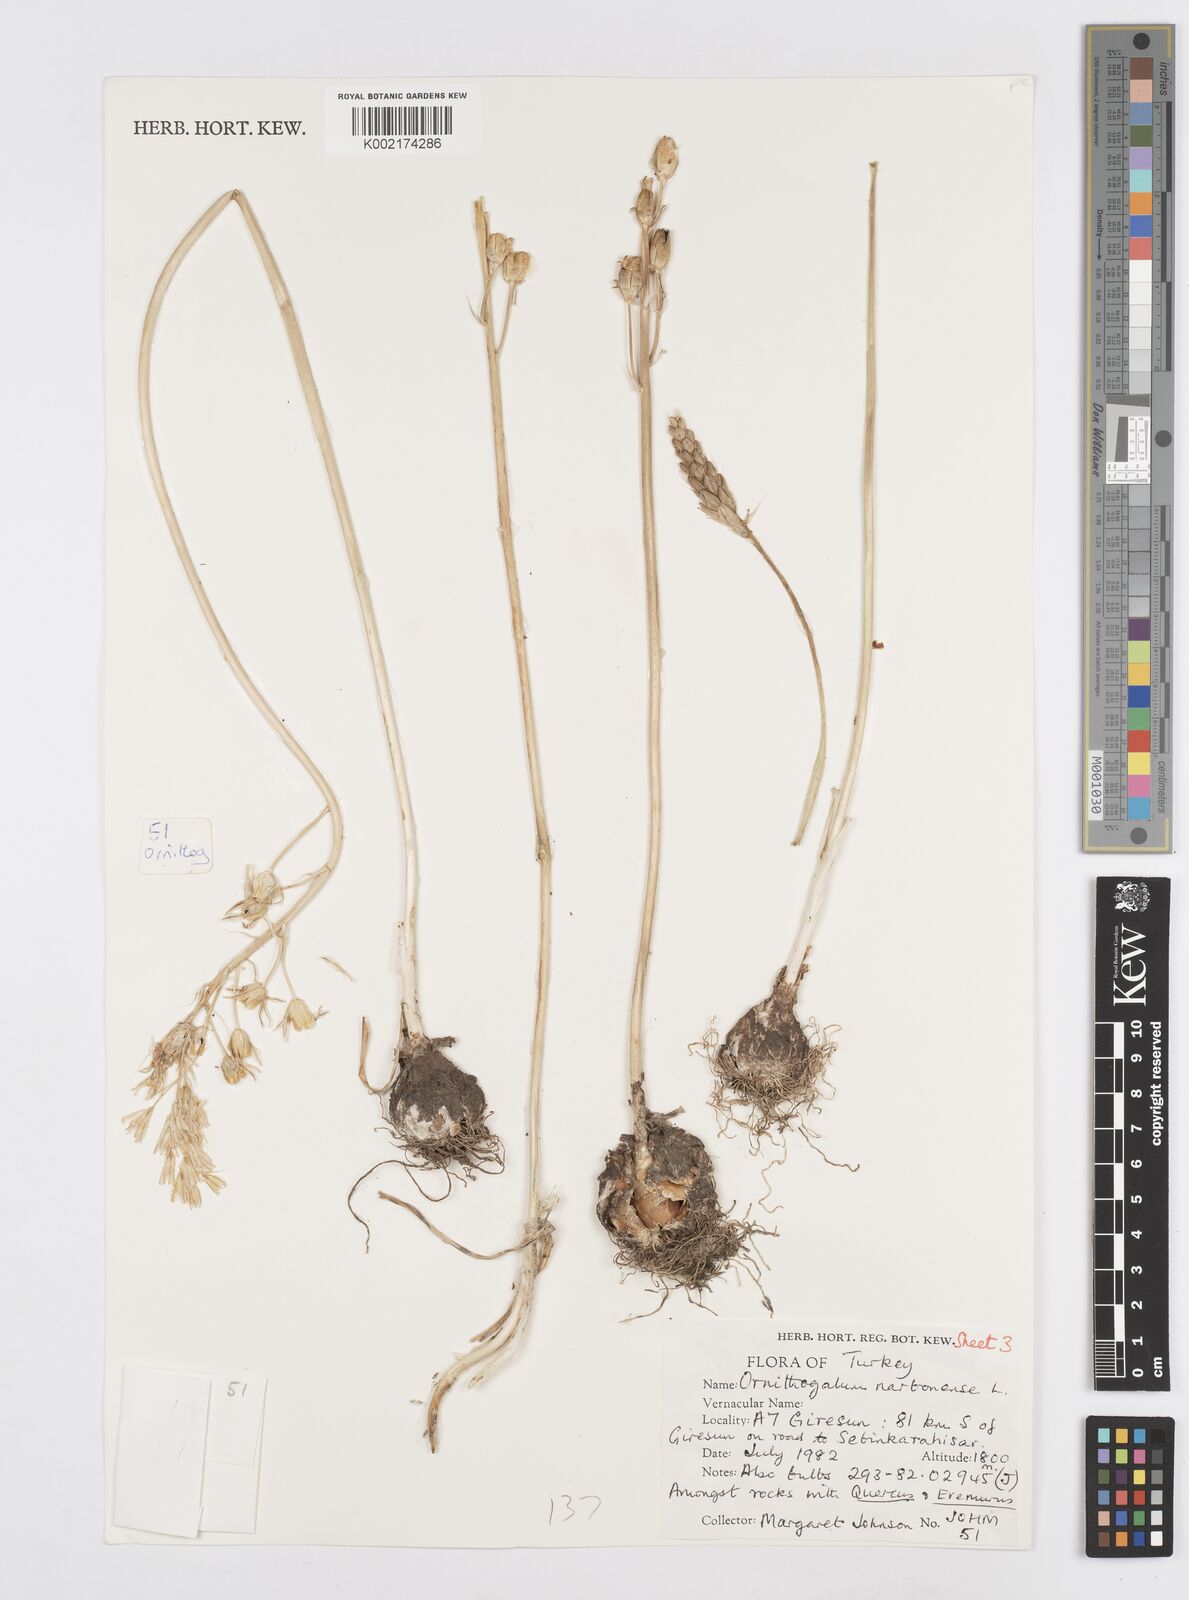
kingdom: Plantae
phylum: Tracheophyta
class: Liliopsida
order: Asparagales
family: Asparagaceae
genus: Ornithogalum
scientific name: Ornithogalum narbonense
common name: Bath-asparagus
